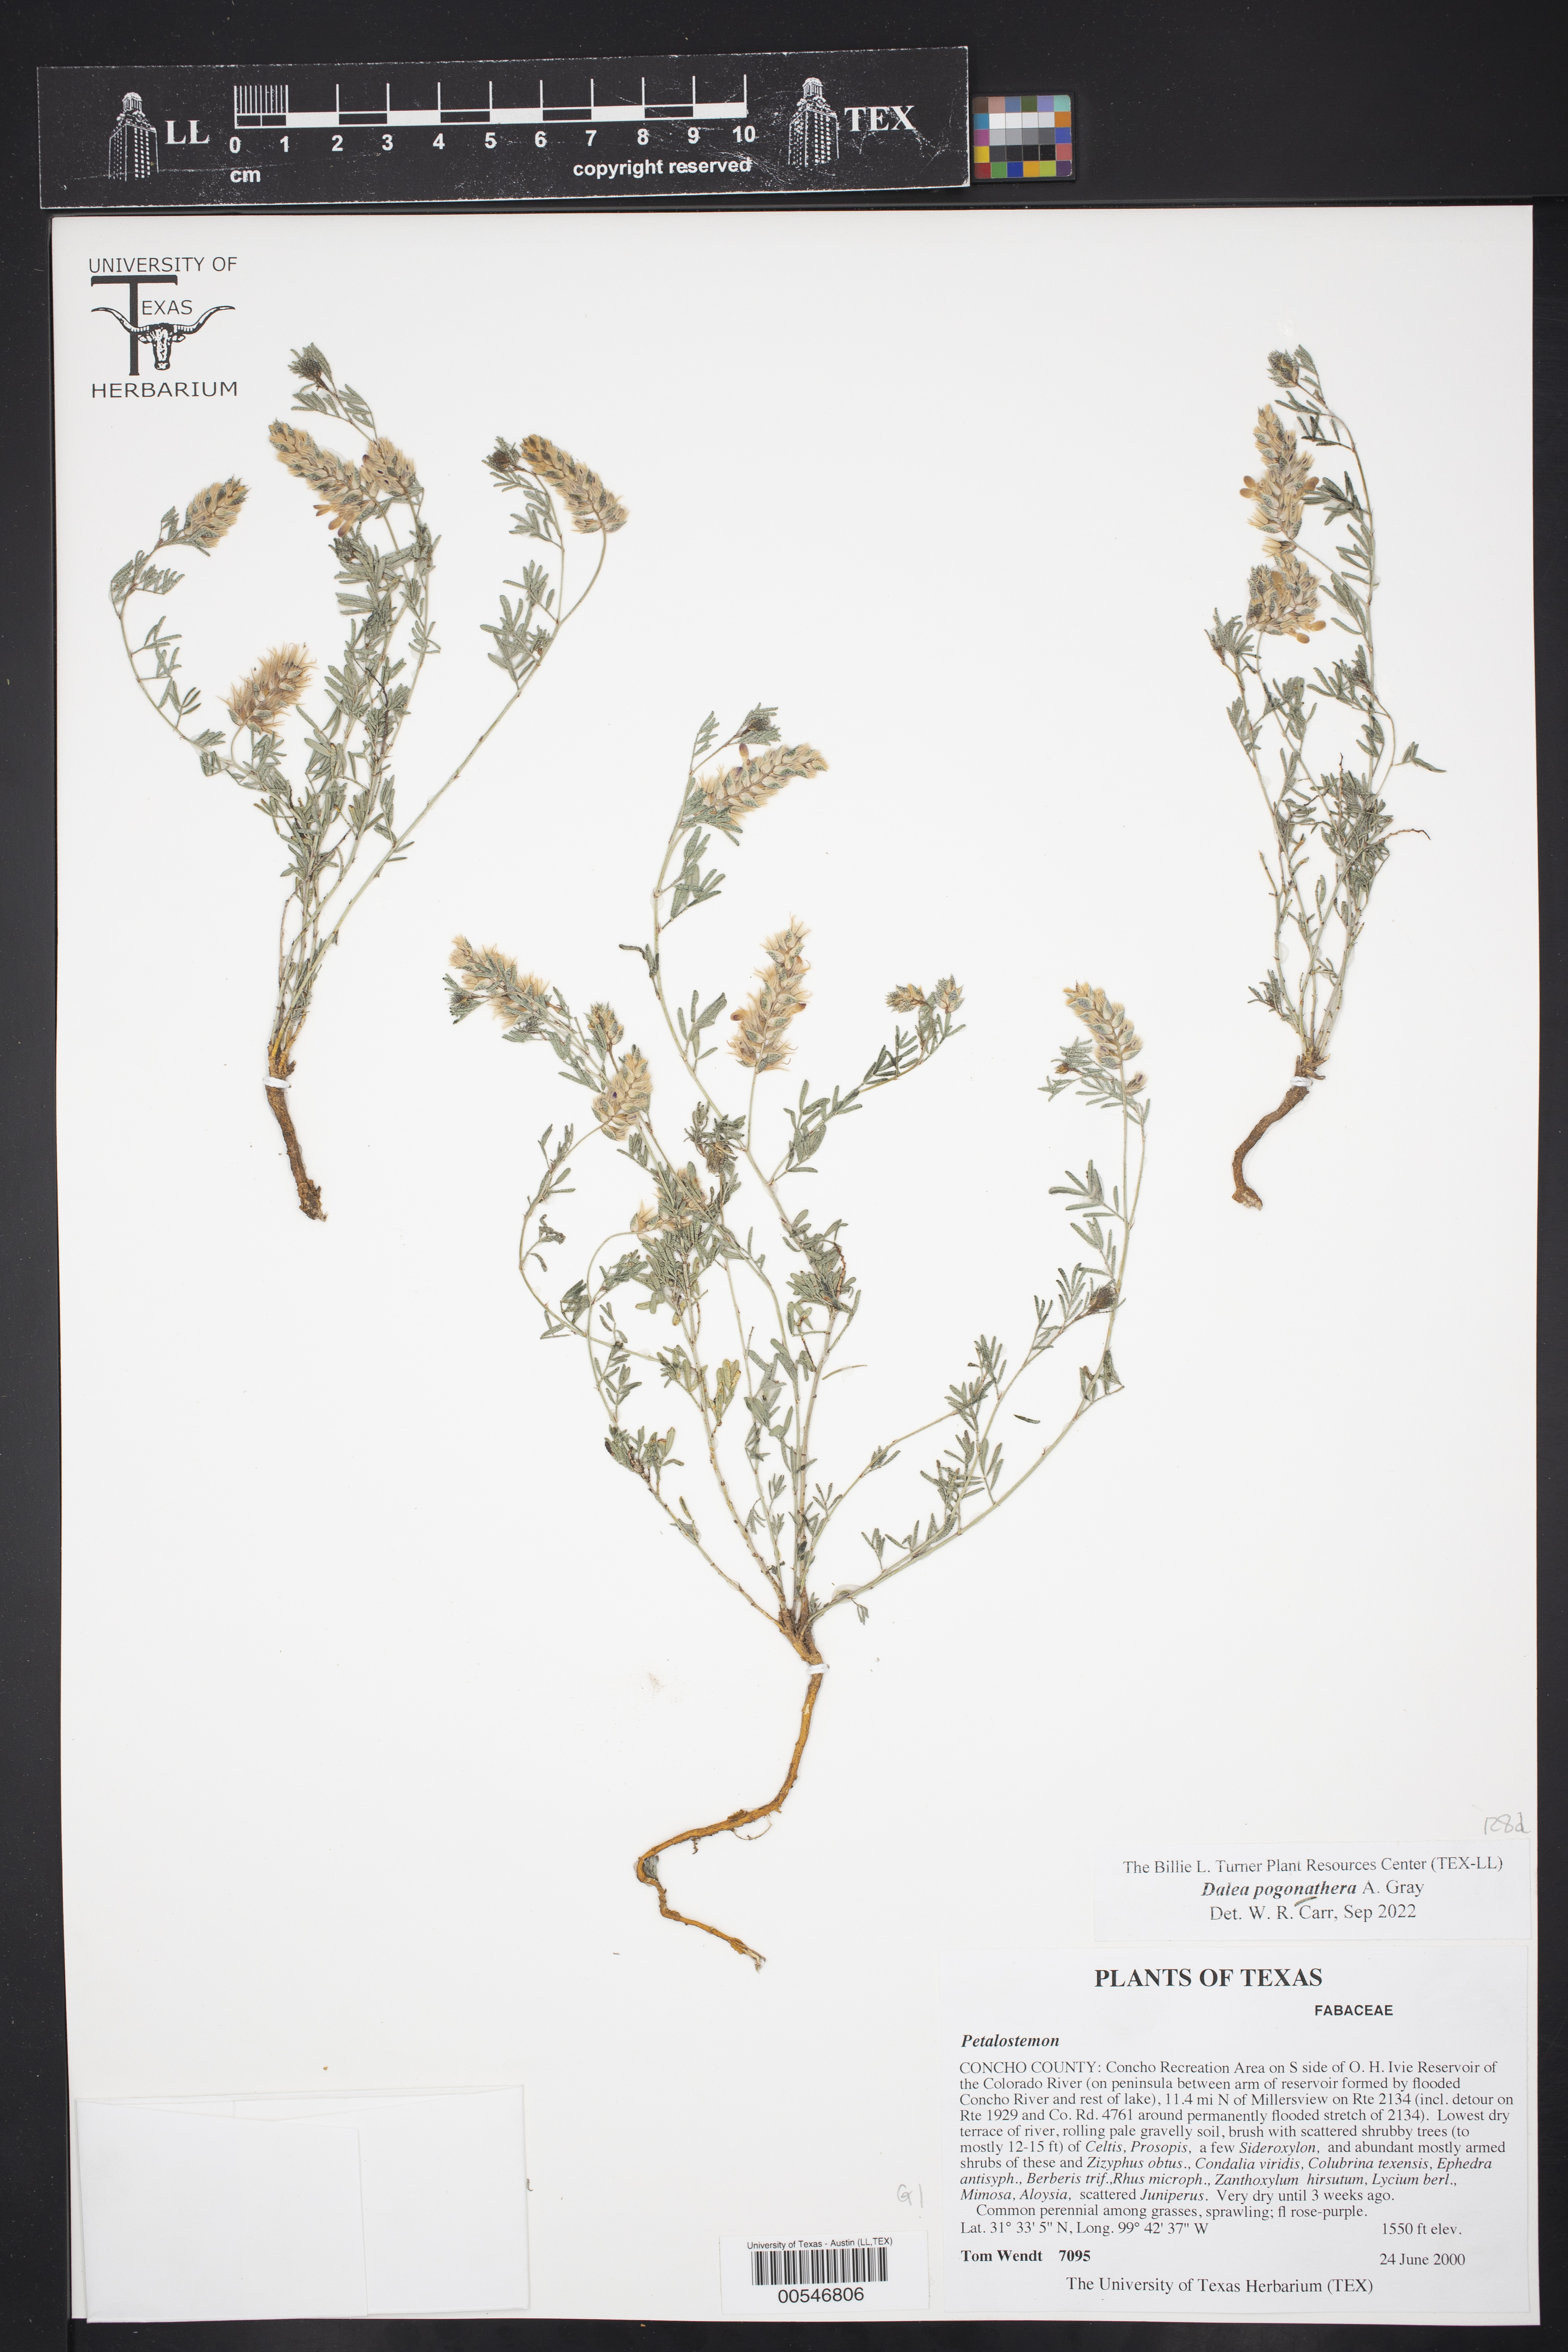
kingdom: Plantae
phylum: Tracheophyta
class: Magnoliopsida
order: Fabales
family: Fabaceae
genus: Dalea
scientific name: Dalea nana
